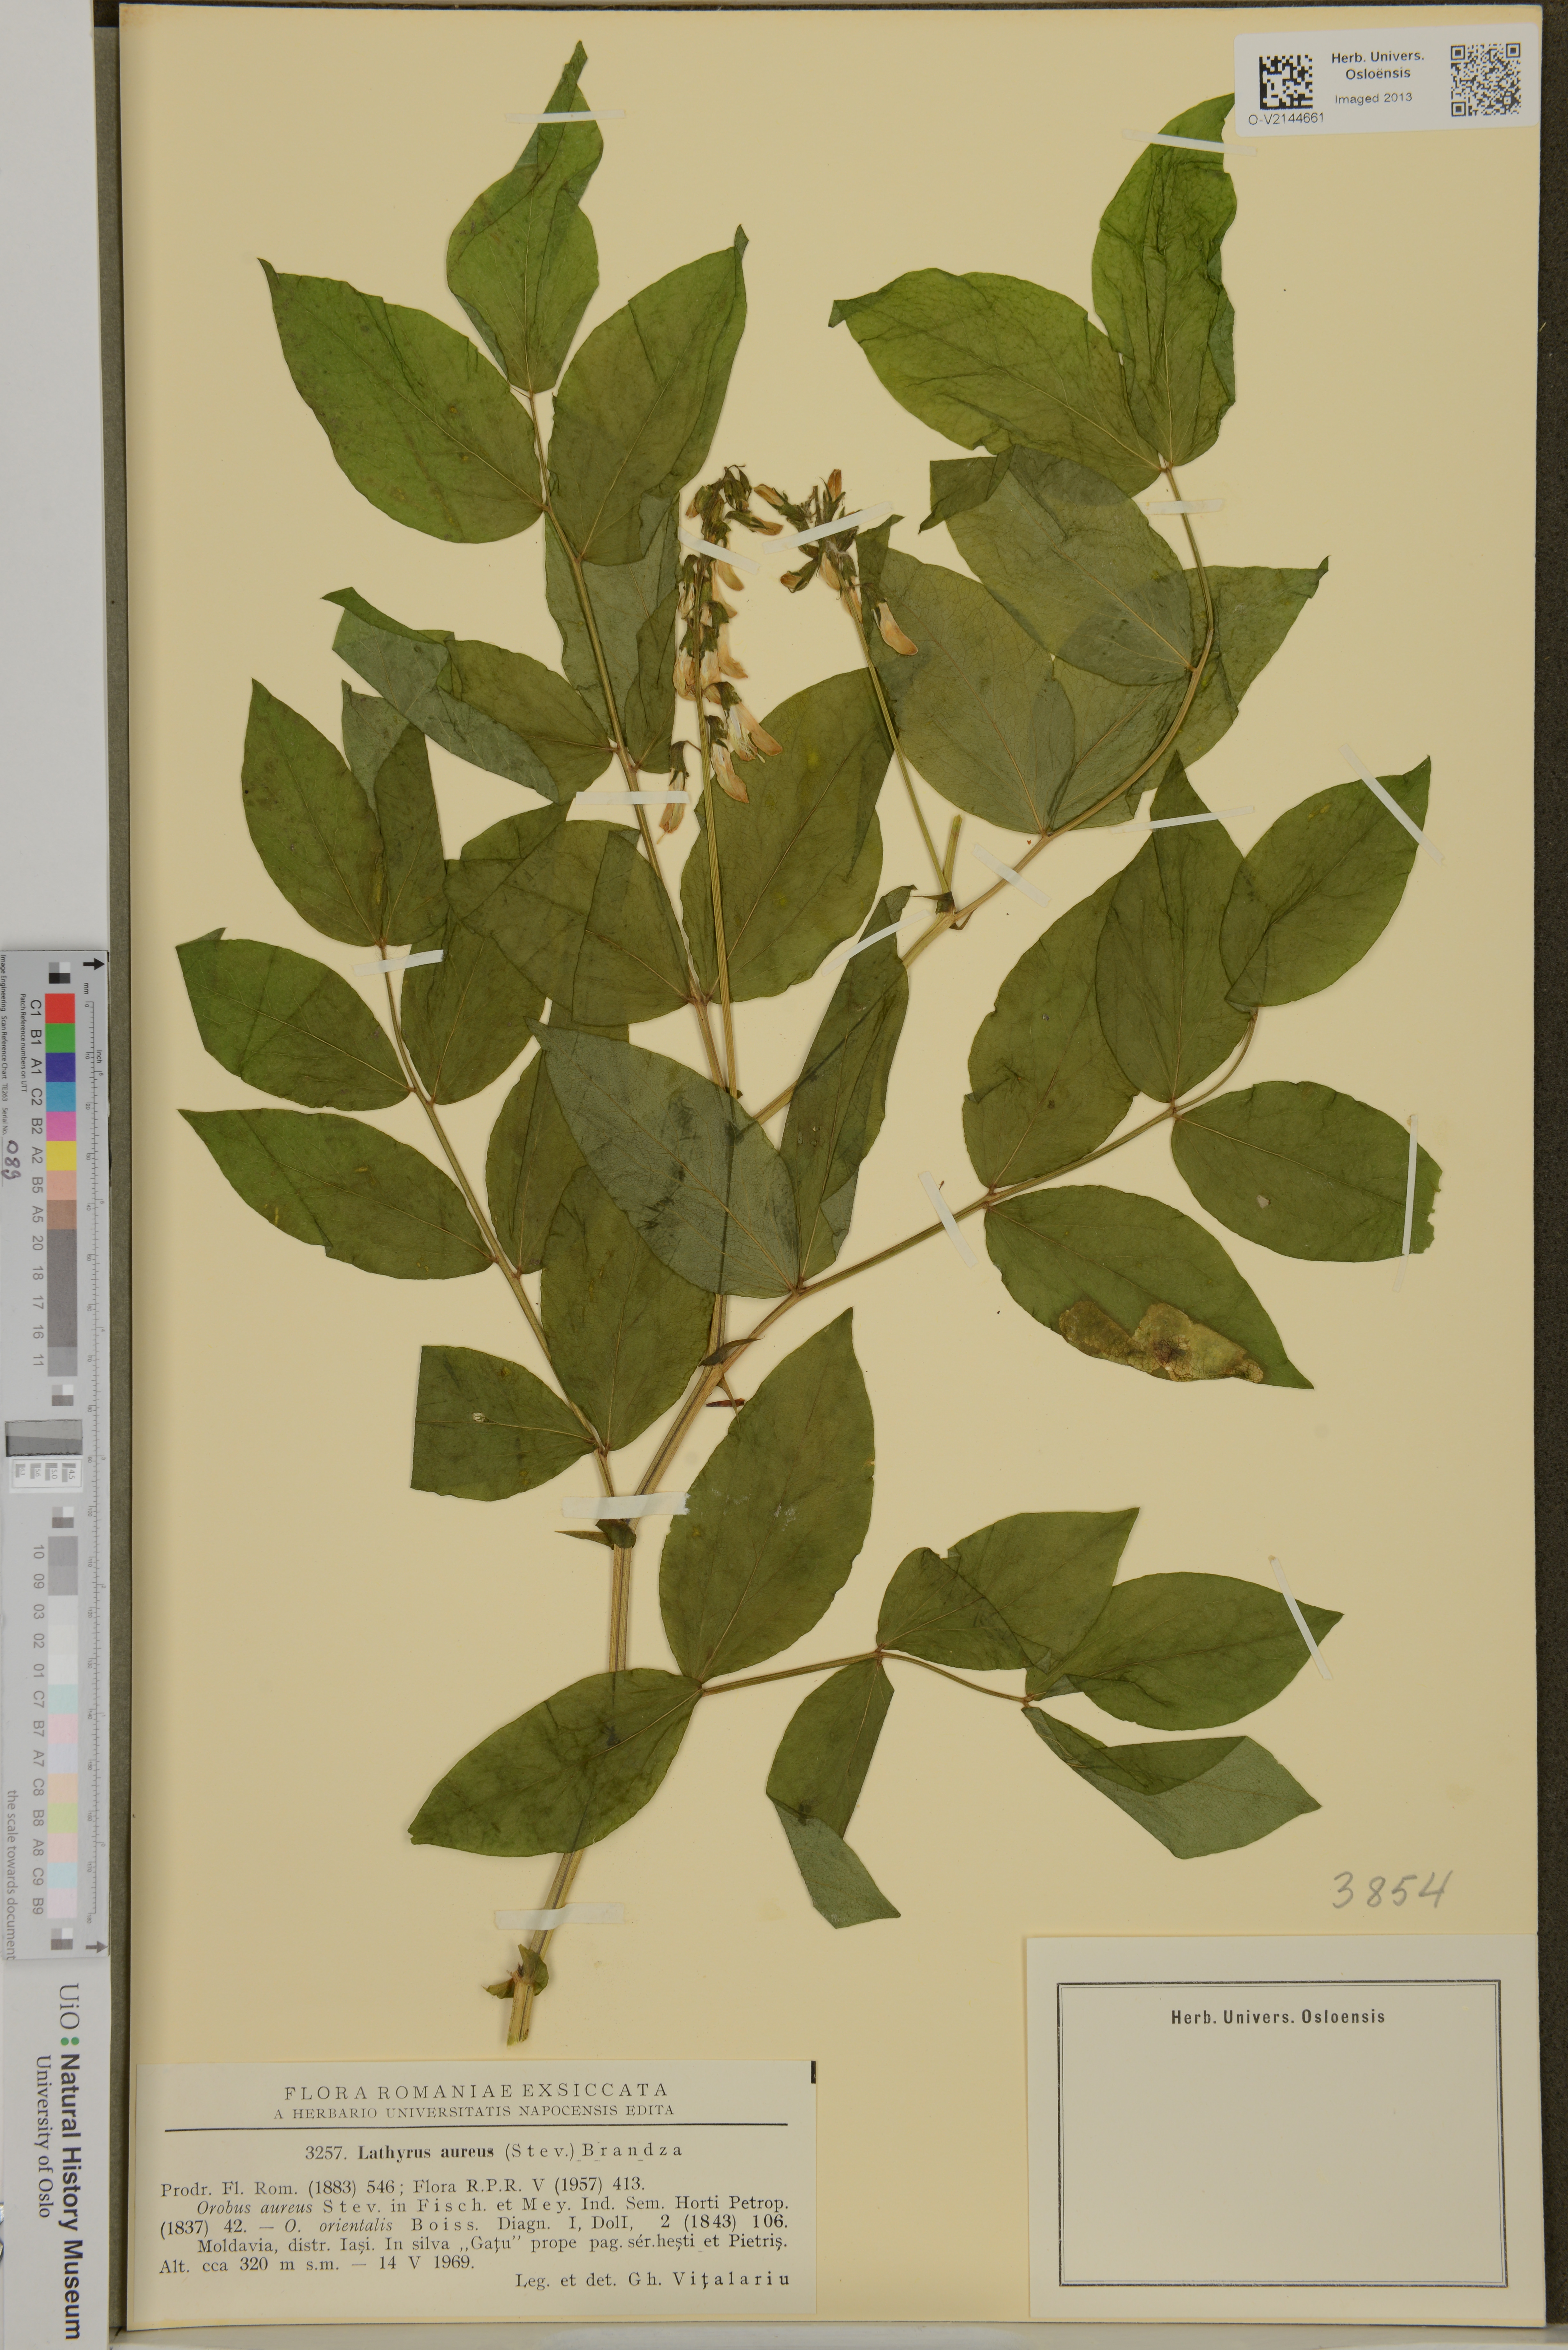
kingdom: Plantae
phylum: Tracheophyta
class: Magnoliopsida
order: Fabales
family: Fabaceae
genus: Lathyrus
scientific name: Lathyrus aureus
